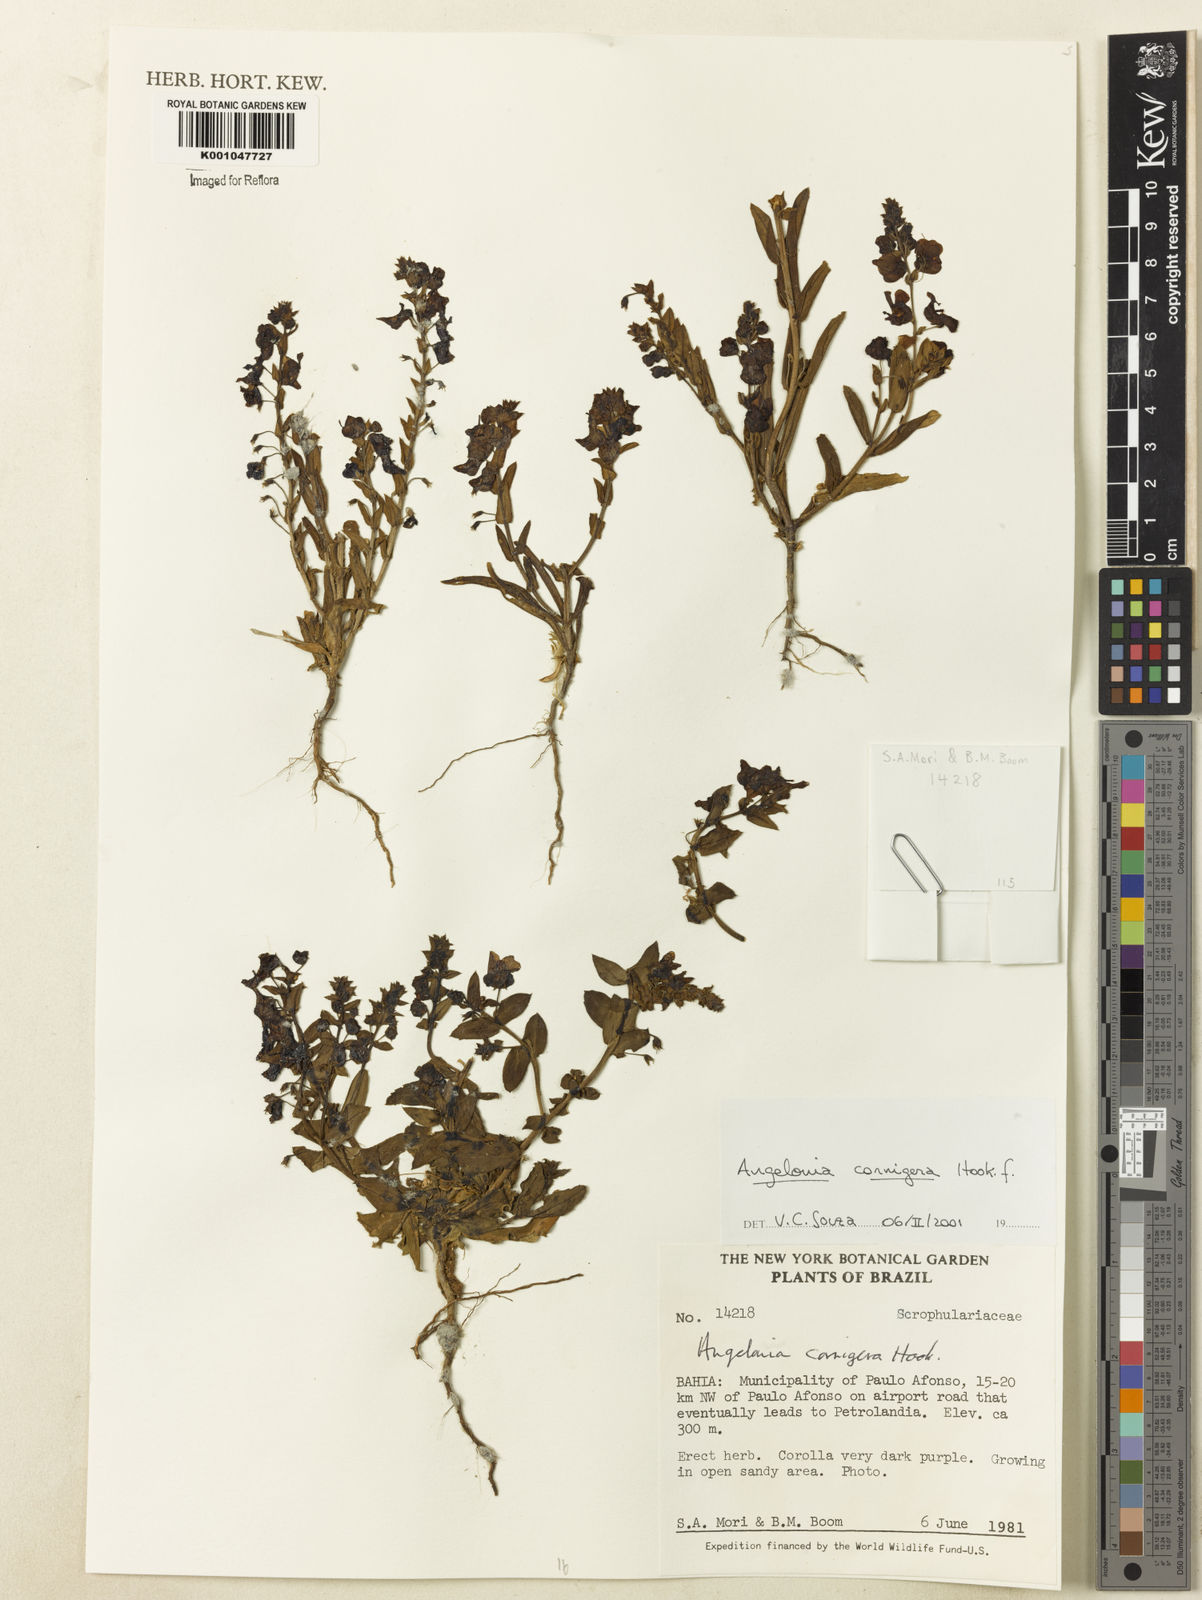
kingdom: Plantae
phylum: Tracheophyta
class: Magnoliopsida
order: Lamiales
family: Plantaginaceae
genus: Angelonia
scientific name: Angelonia cornigera
